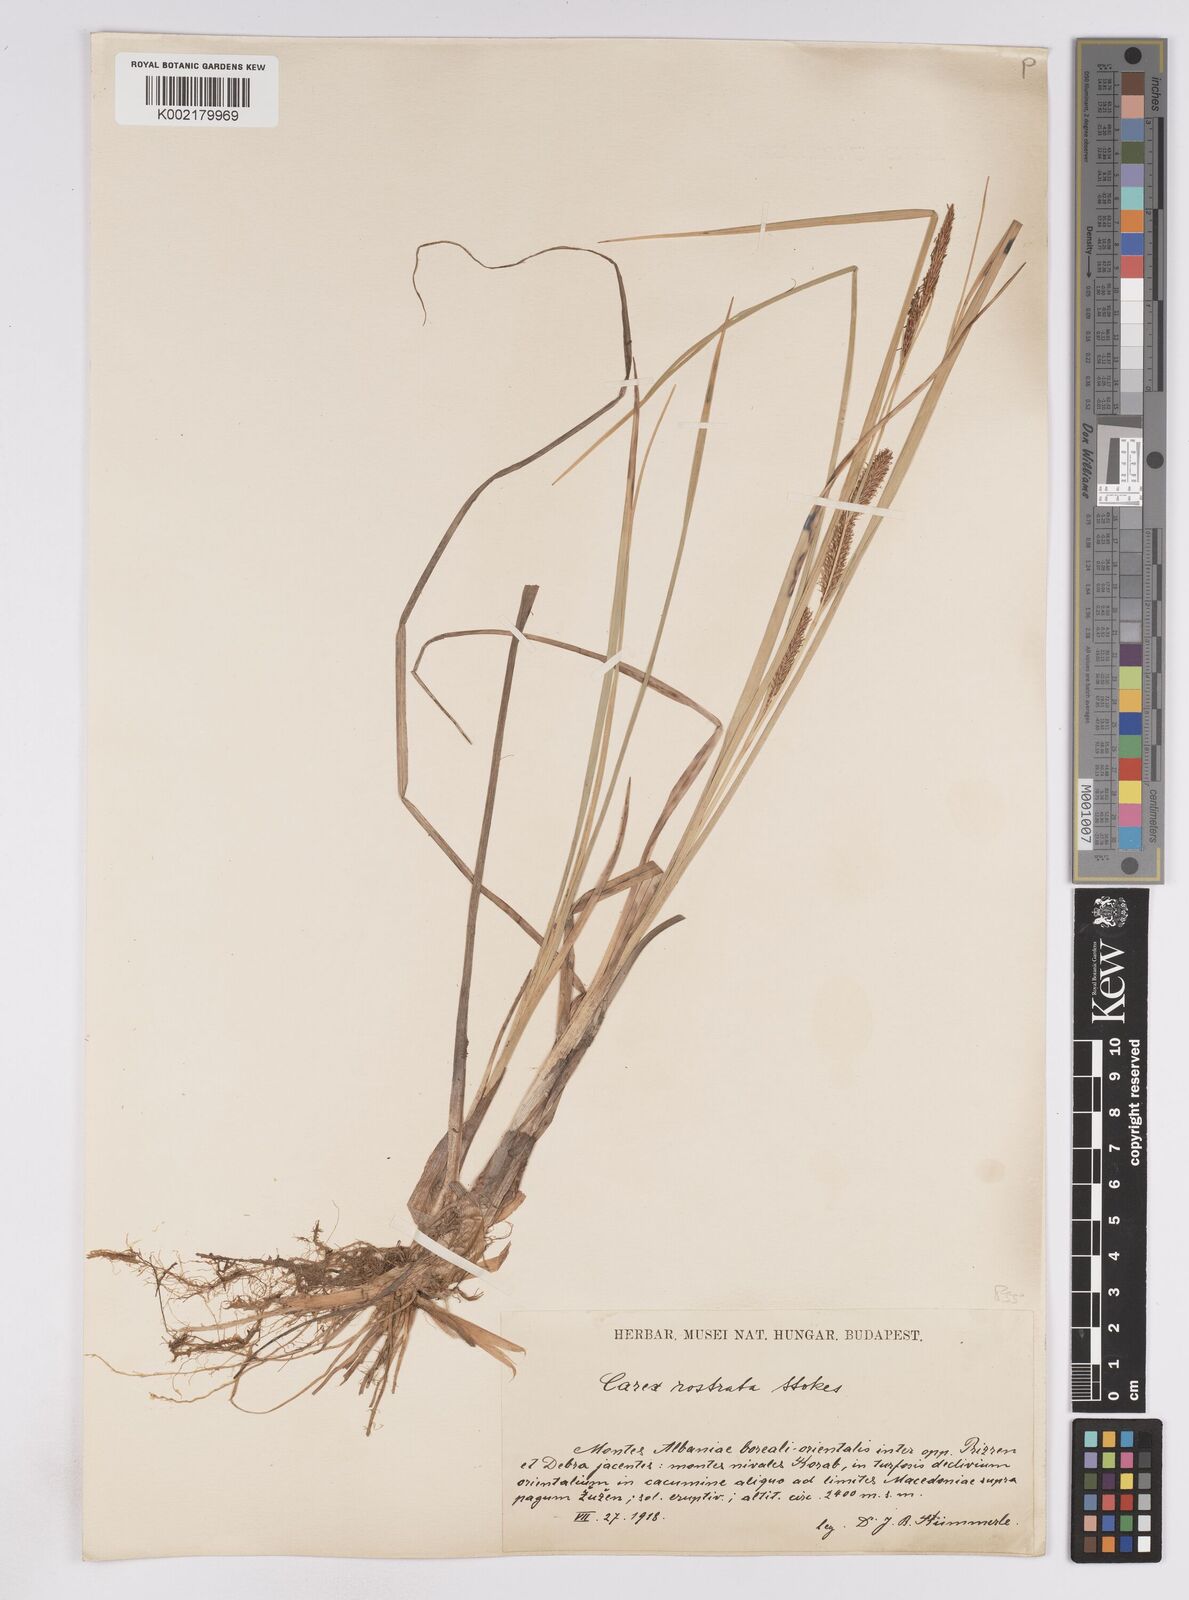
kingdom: Plantae
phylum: Tracheophyta
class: Liliopsida
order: Poales
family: Cyperaceae
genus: Carex
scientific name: Carex utriculata
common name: Beaked sedge
